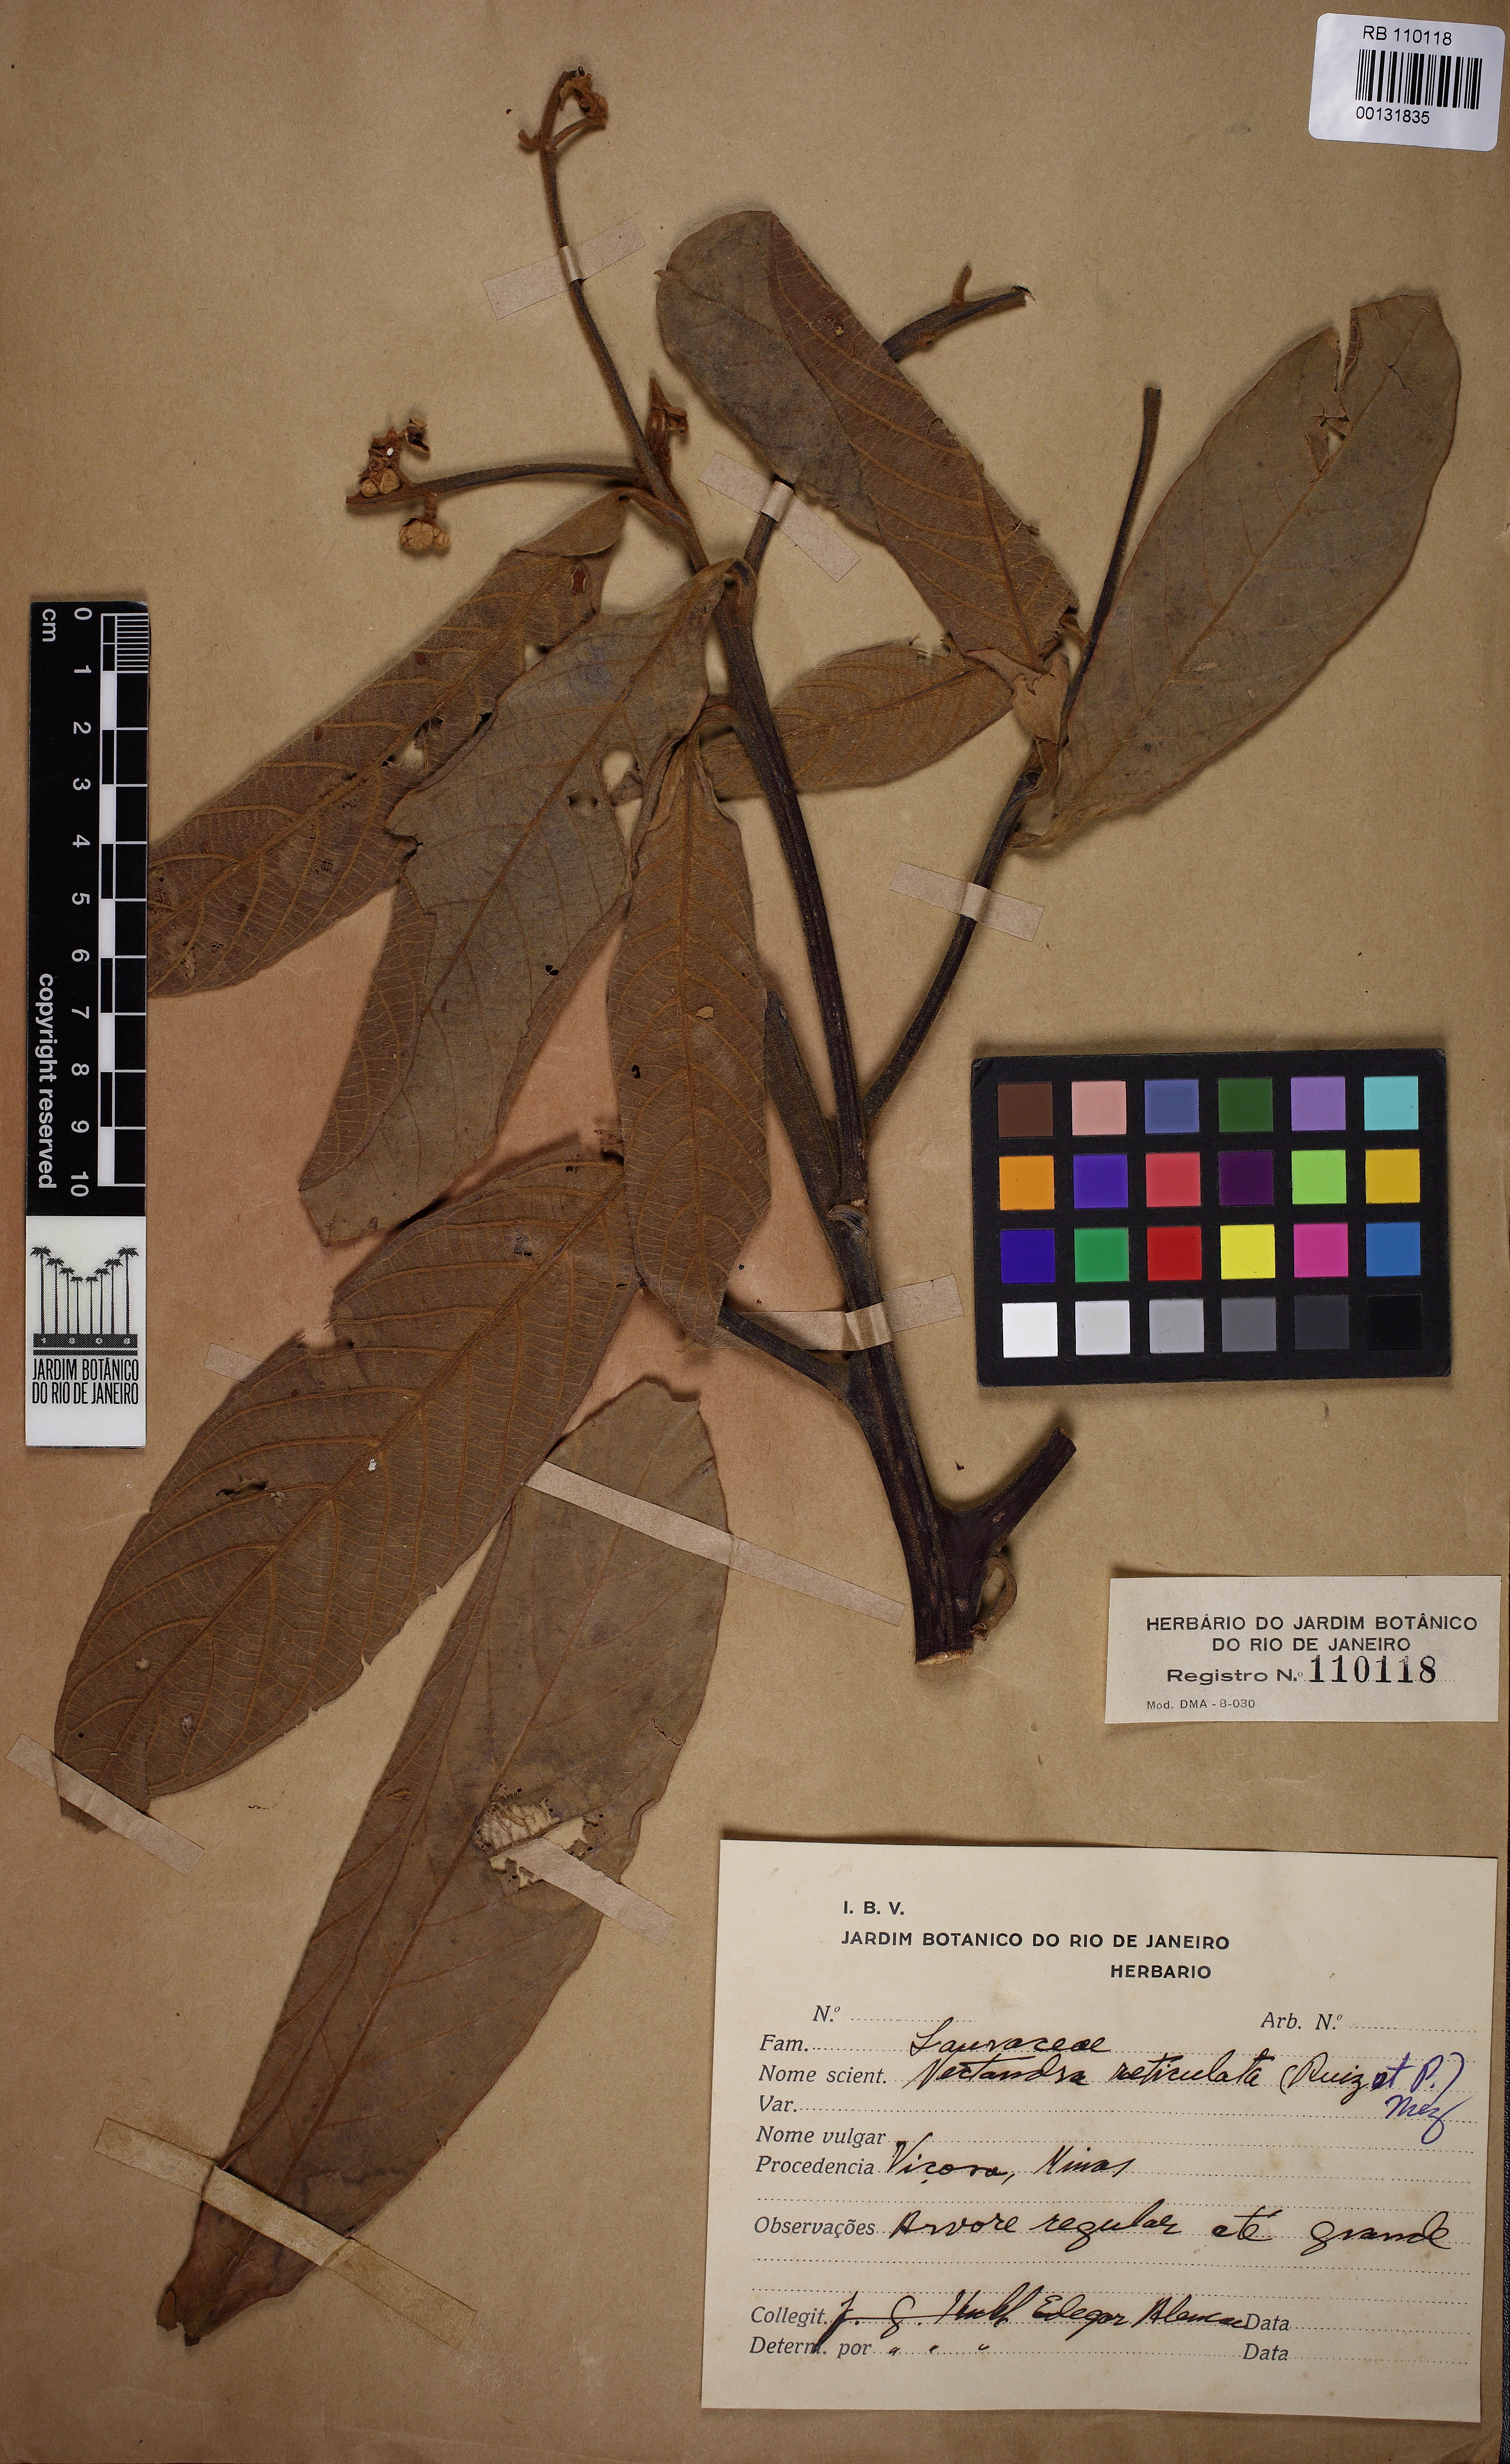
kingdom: Plantae
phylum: Tracheophyta
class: Magnoliopsida
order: Laurales
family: Lauraceae
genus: Nectandra
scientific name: Nectandra villosa
